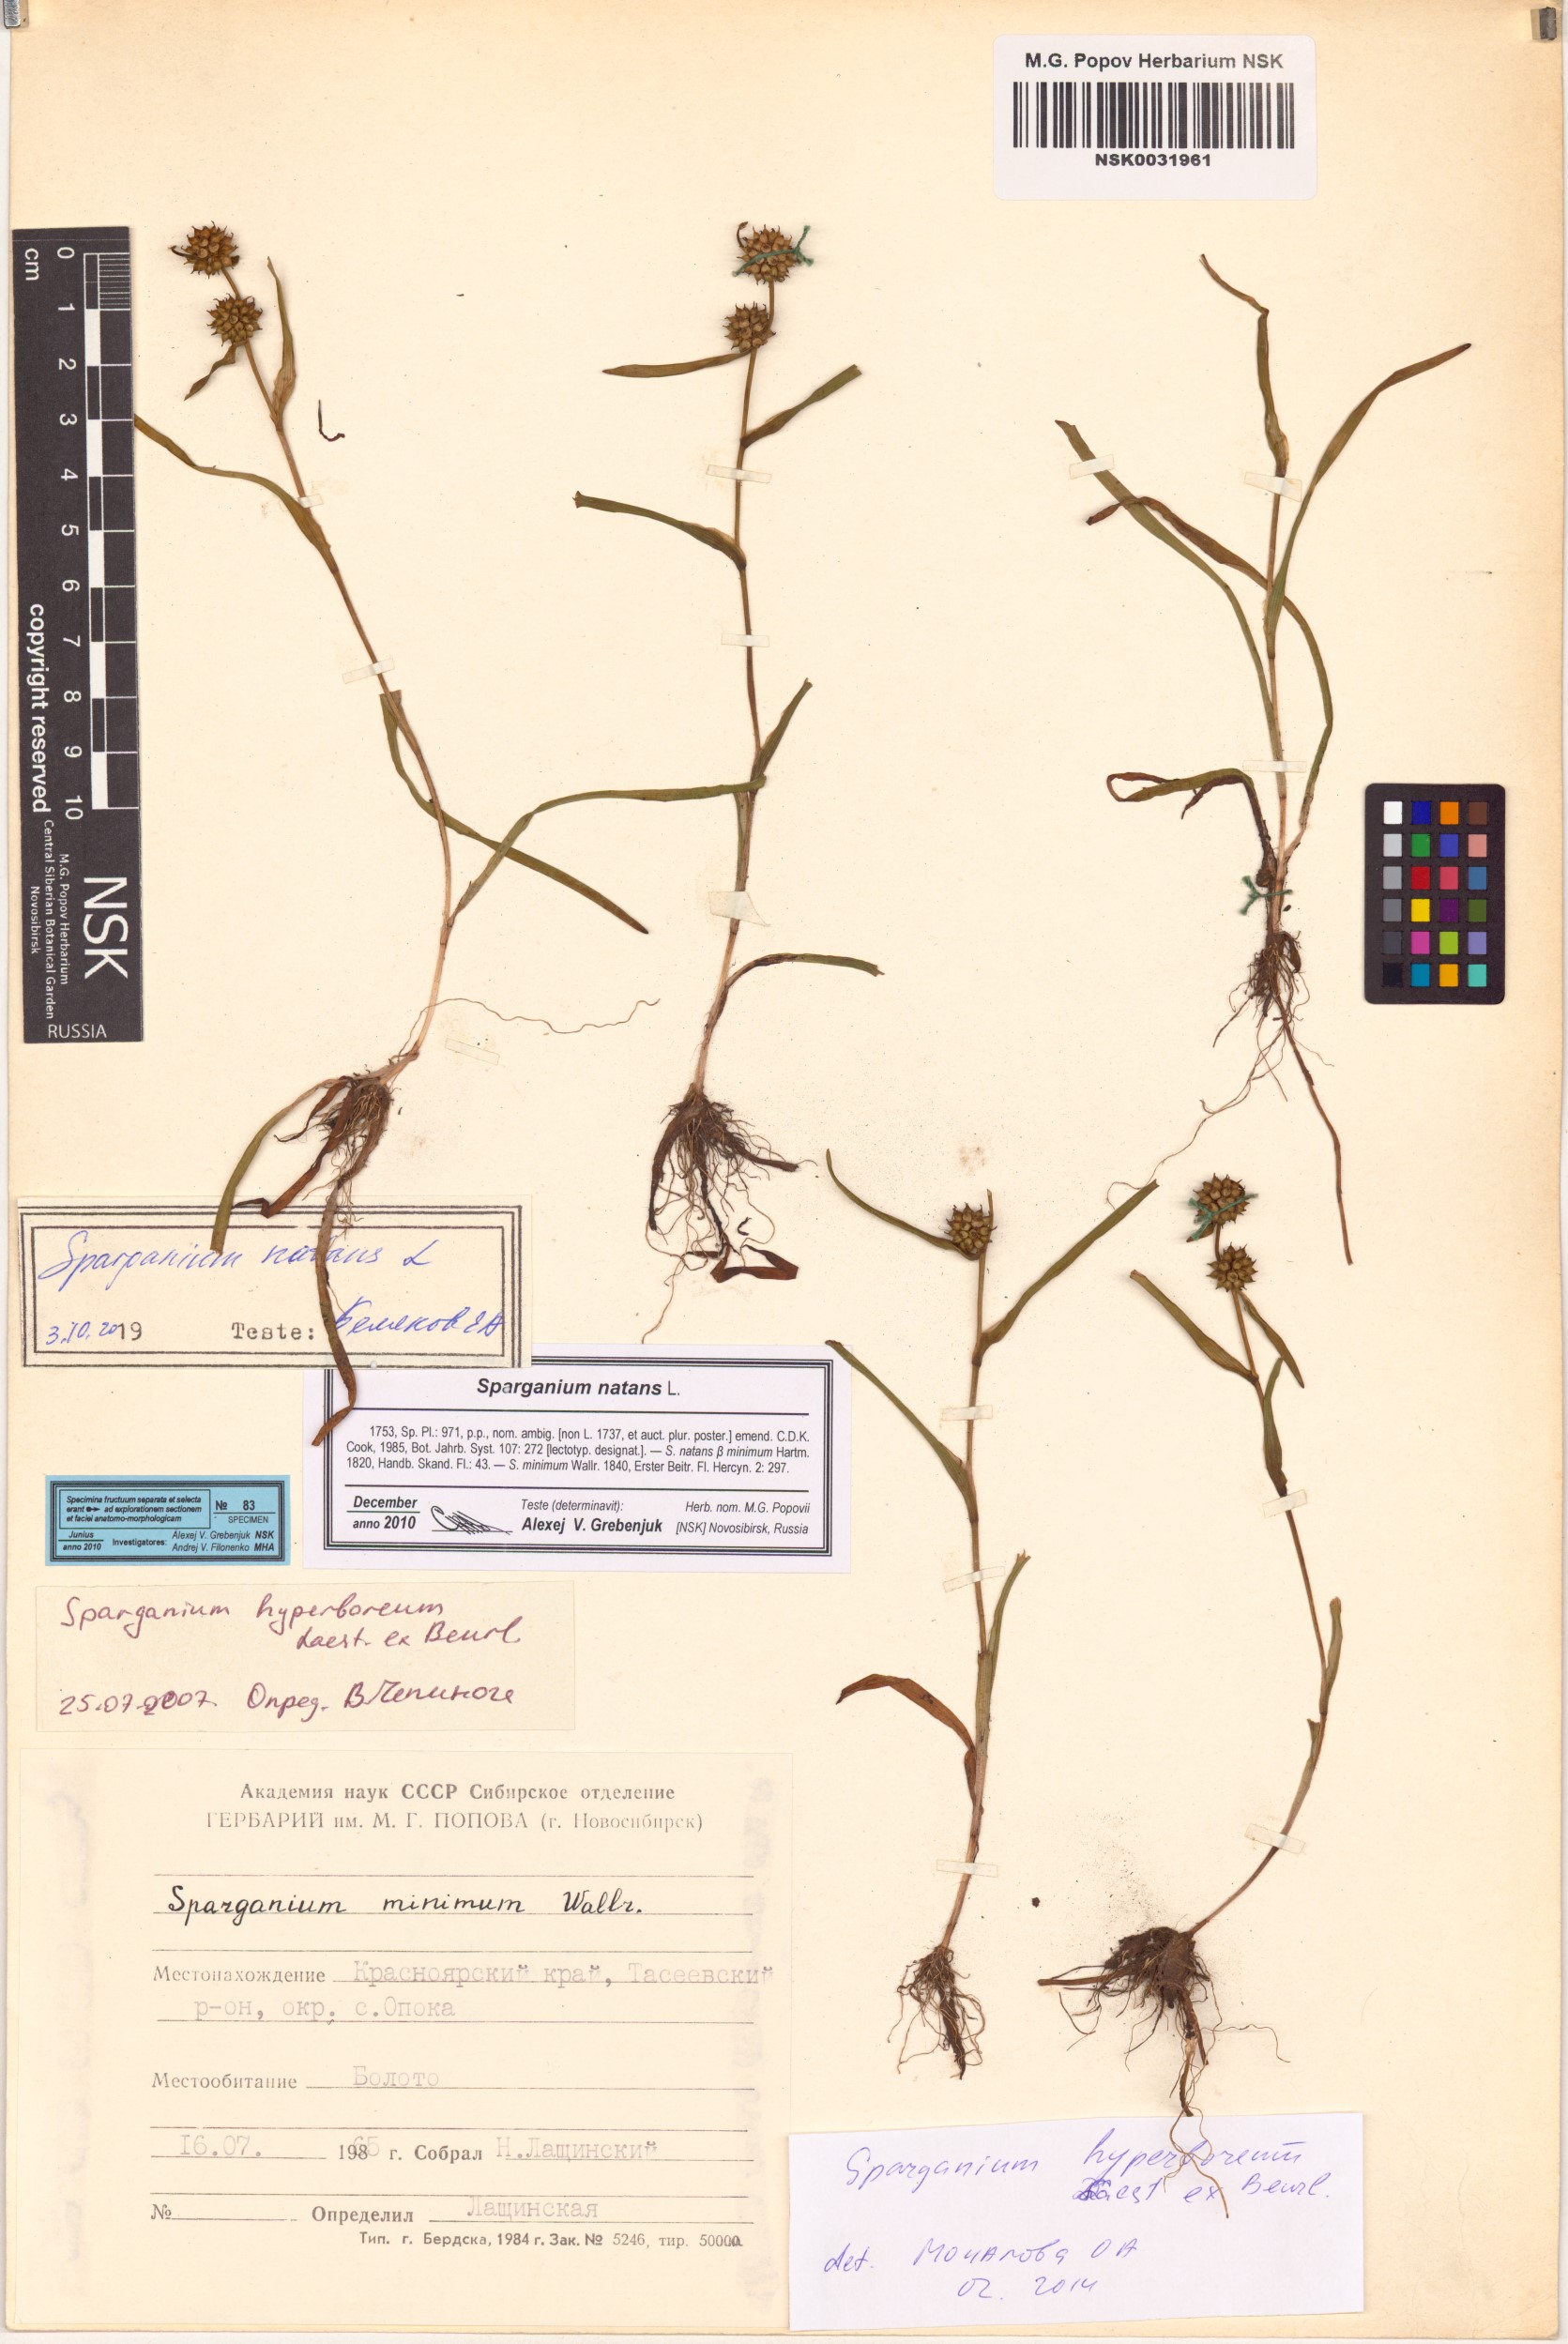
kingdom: Plantae
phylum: Tracheophyta
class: Liliopsida
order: Poales
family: Typhaceae
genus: Sparganium
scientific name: Sparganium natans
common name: Least bur-reed
